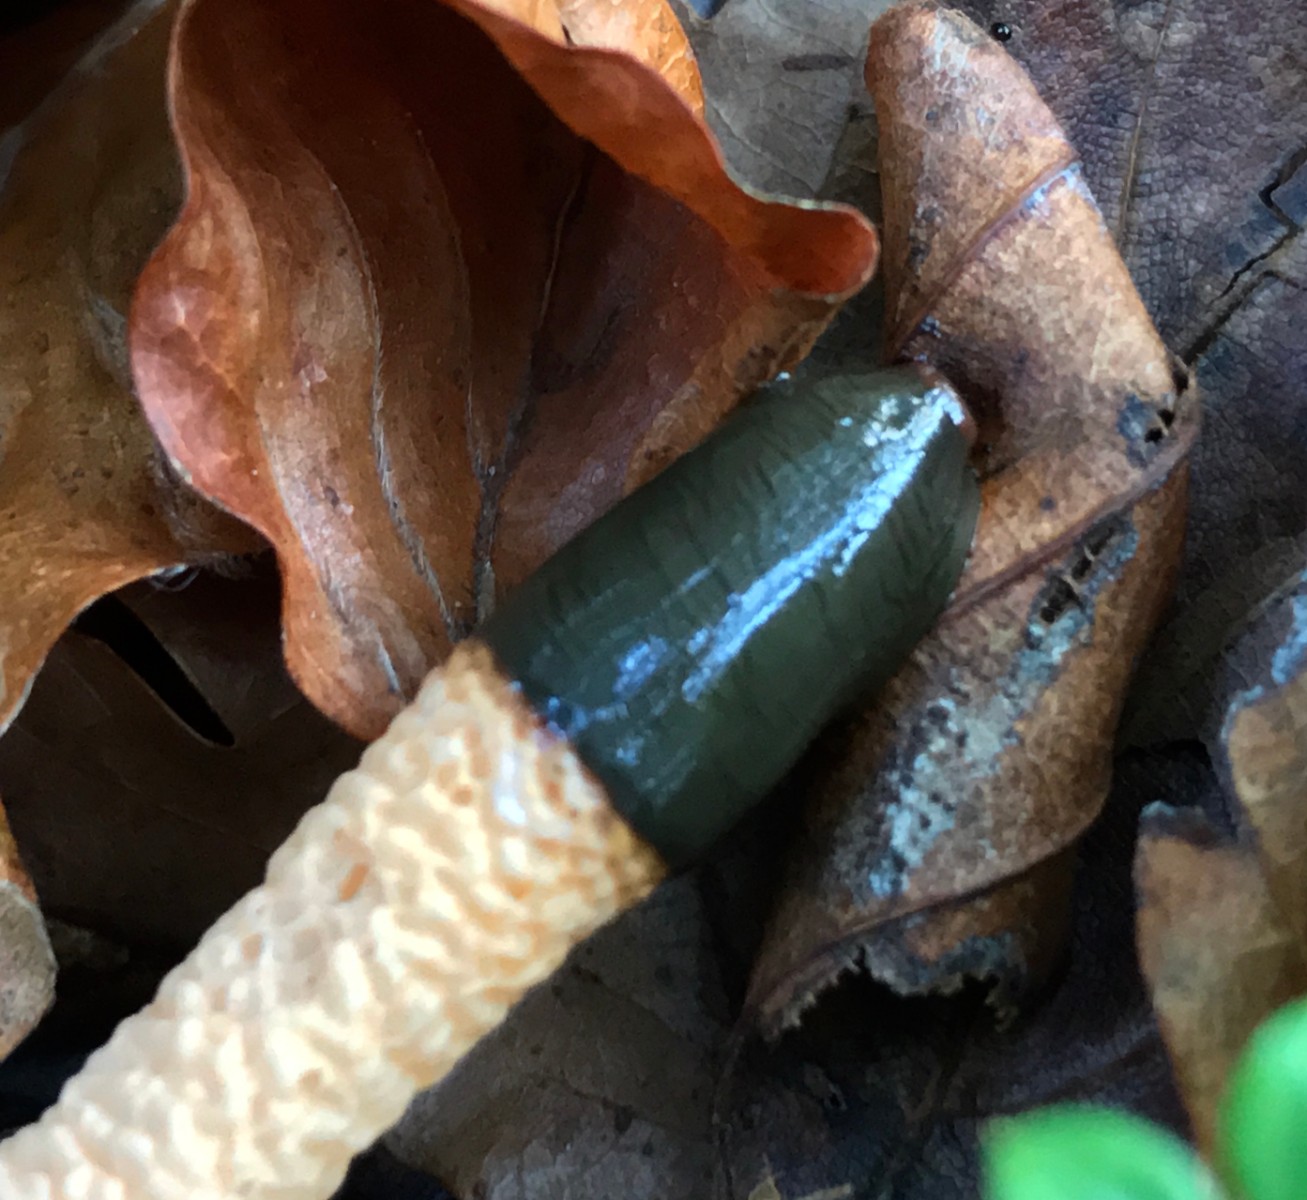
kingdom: Fungi
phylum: Basidiomycota
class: Agaricomycetes
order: Phallales
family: Phallaceae
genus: Mutinus
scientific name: Mutinus caninus
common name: hunde-stinksvamp
